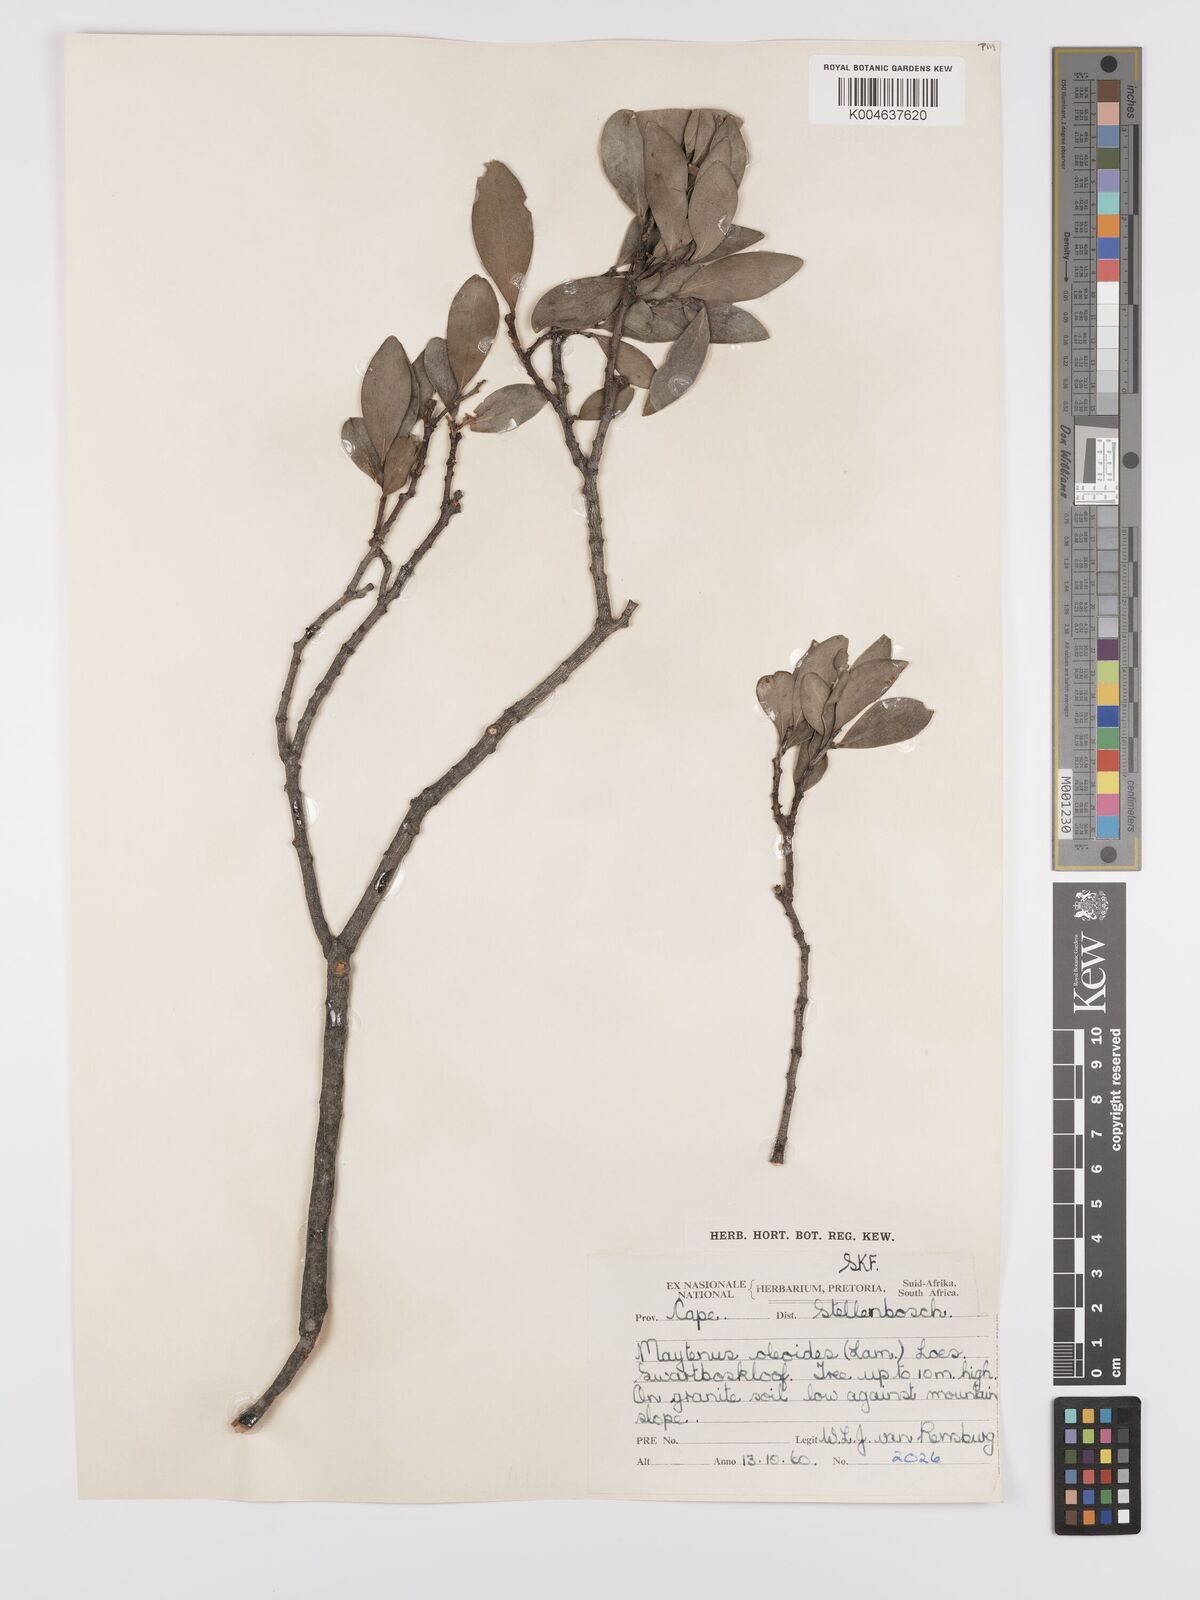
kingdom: Plantae
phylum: Tracheophyta
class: Magnoliopsida
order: Celastrales
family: Celastraceae
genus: Monteverdia
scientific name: Monteverdia laurina
